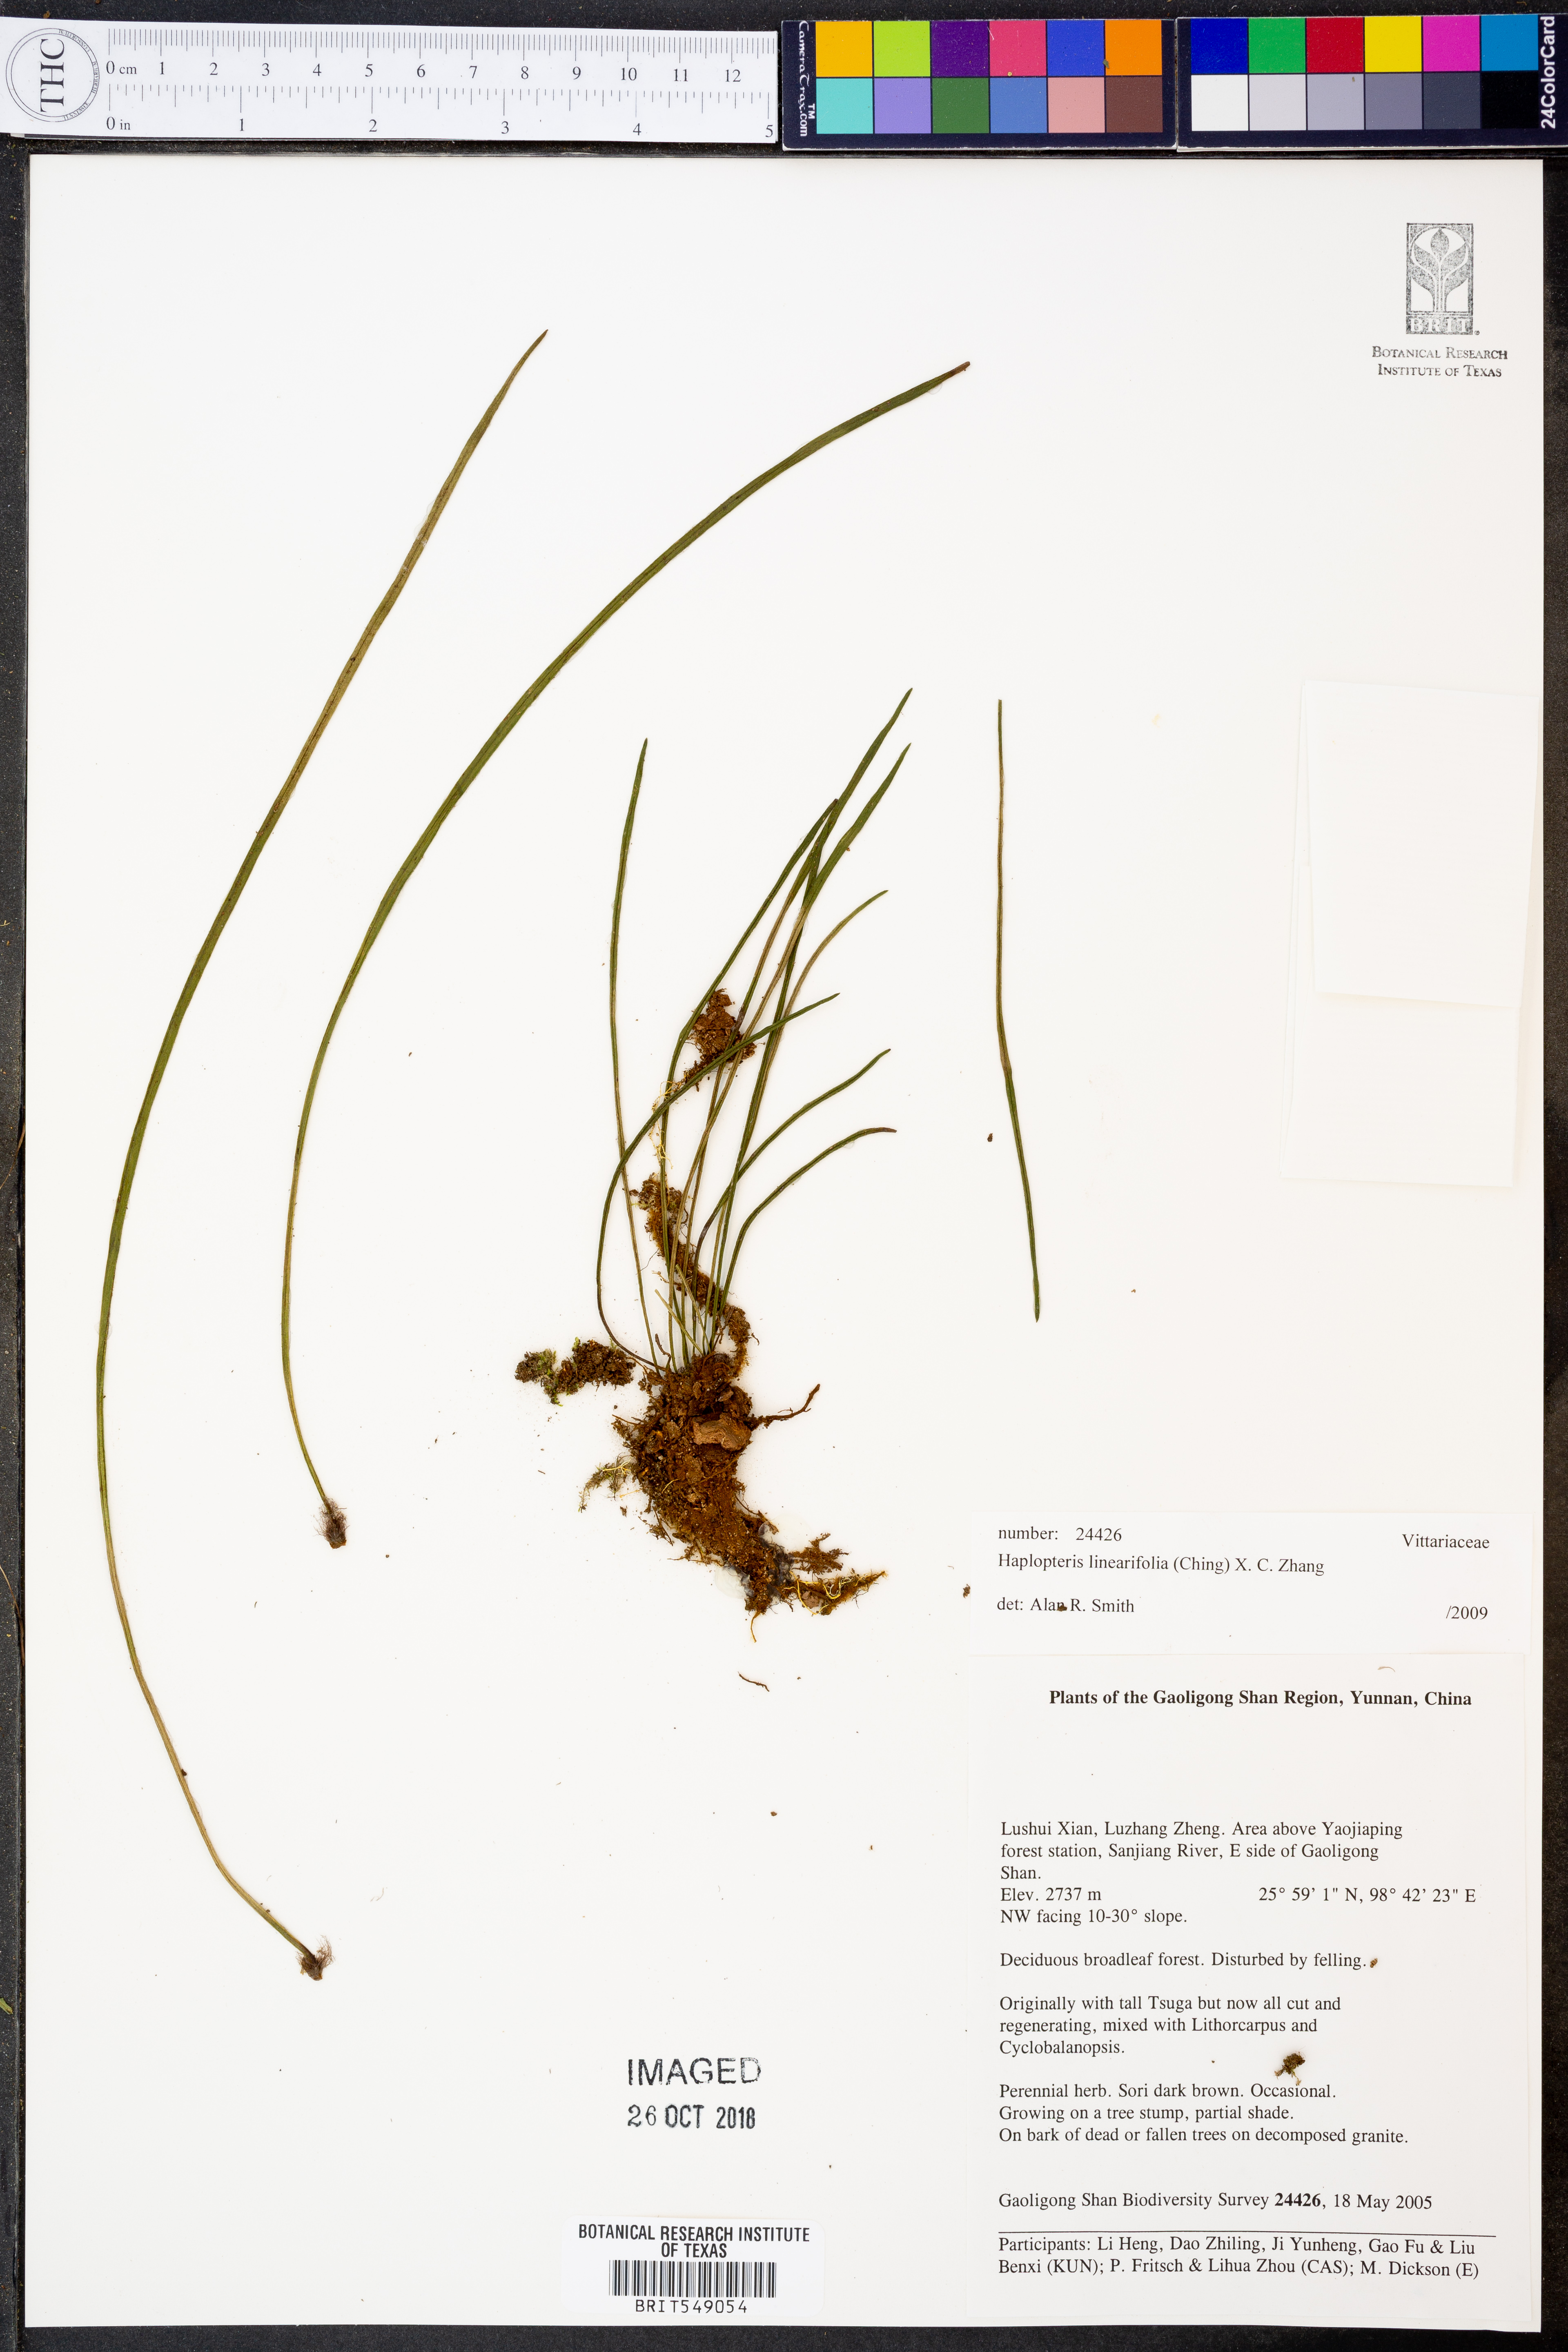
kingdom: Plantae
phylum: Tracheophyta
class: Polypodiopsida
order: Polypodiales
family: Pteridaceae
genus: Haplopteris
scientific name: Haplopteris linearifolia
